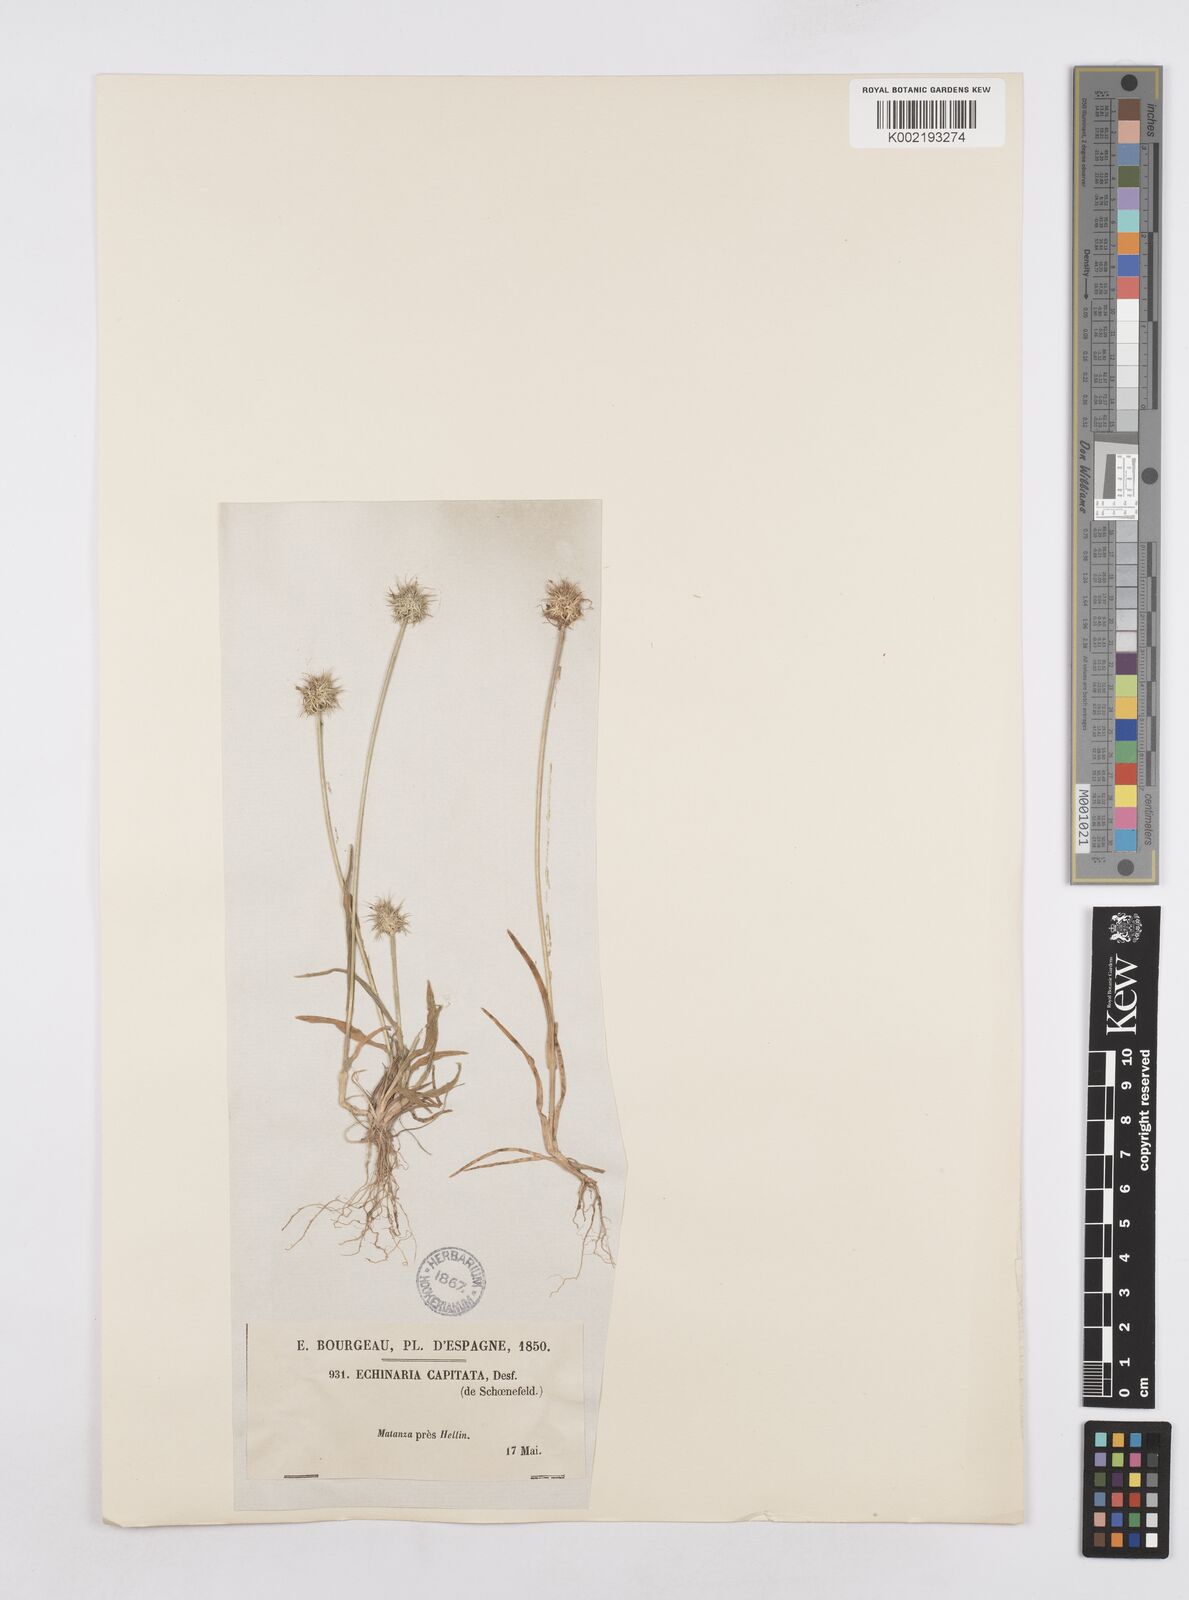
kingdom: Plantae
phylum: Tracheophyta
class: Liliopsida
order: Poales
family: Poaceae
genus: Echinaria
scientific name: Echinaria capitata
